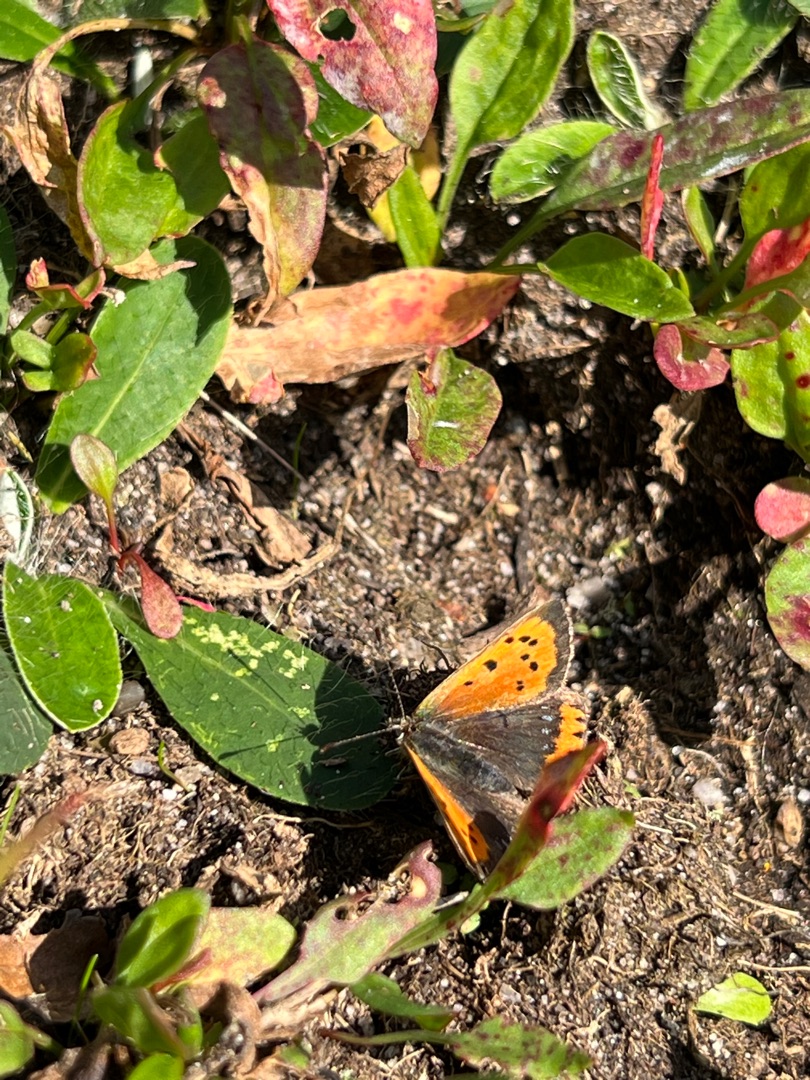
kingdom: Animalia
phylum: Arthropoda
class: Insecta
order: Lepidoptera
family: Lycaenidae
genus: Lycaena
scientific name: Lycaena phlaeas
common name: Lille ildfugl
